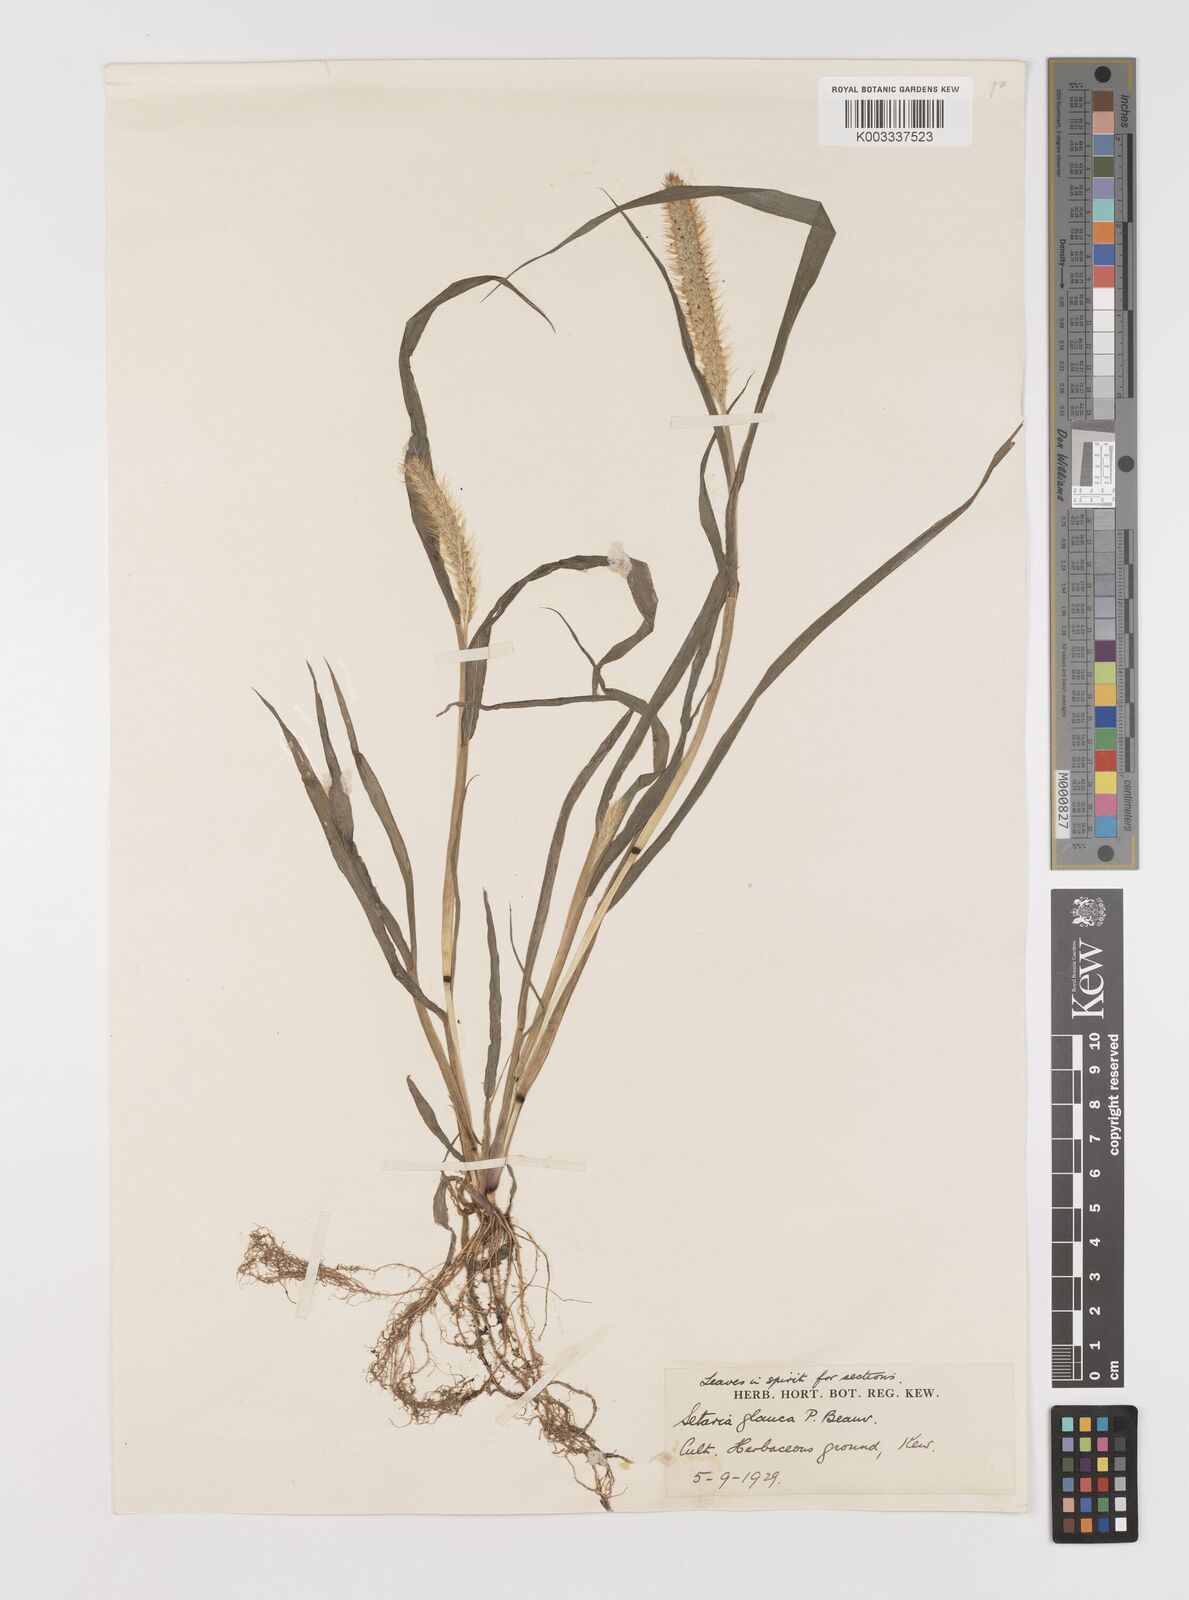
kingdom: Plantae
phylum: Tracheophyta
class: Liliopsida
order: Poales
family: Poaceae
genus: Setaria
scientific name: Setaria pumila
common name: Yellow bristle-grass
